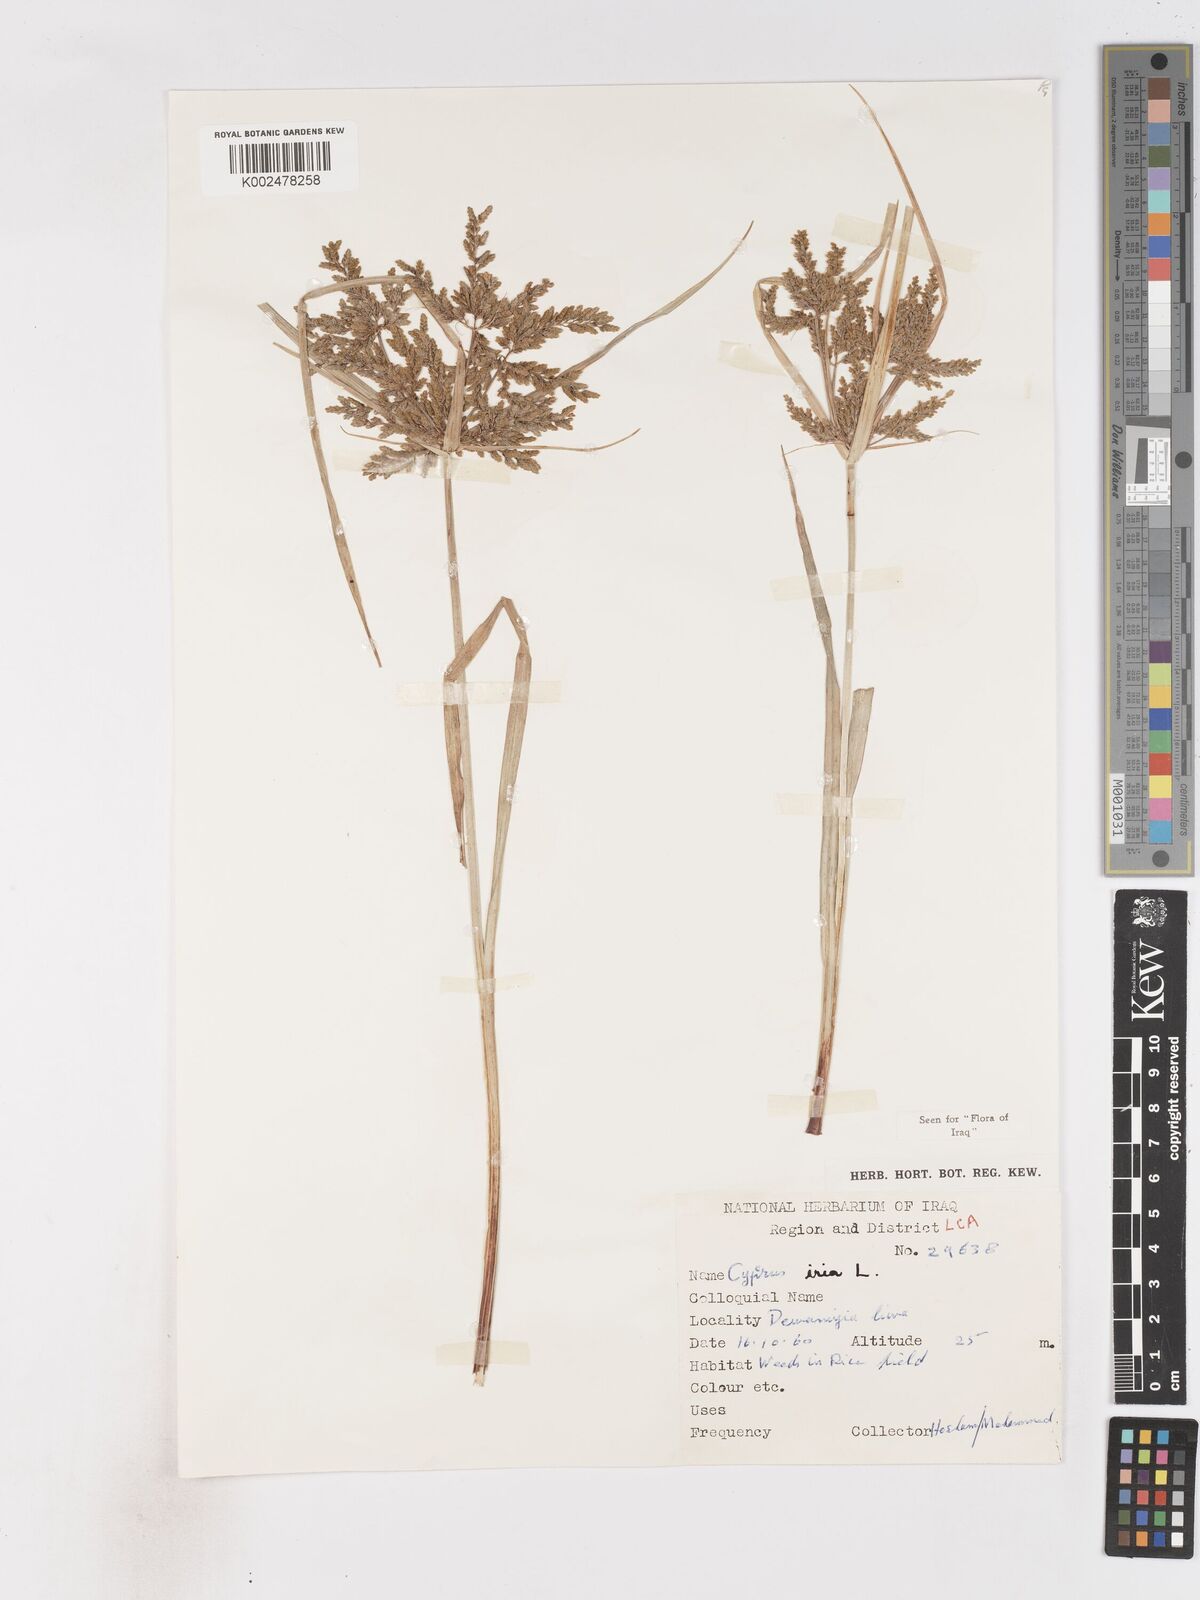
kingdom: Plantae
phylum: Tracheophyta
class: Liliopsida
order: Poales
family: Cyperaceae
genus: Cyperus
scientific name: Cyperus iria
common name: Ricefield flatsedge
